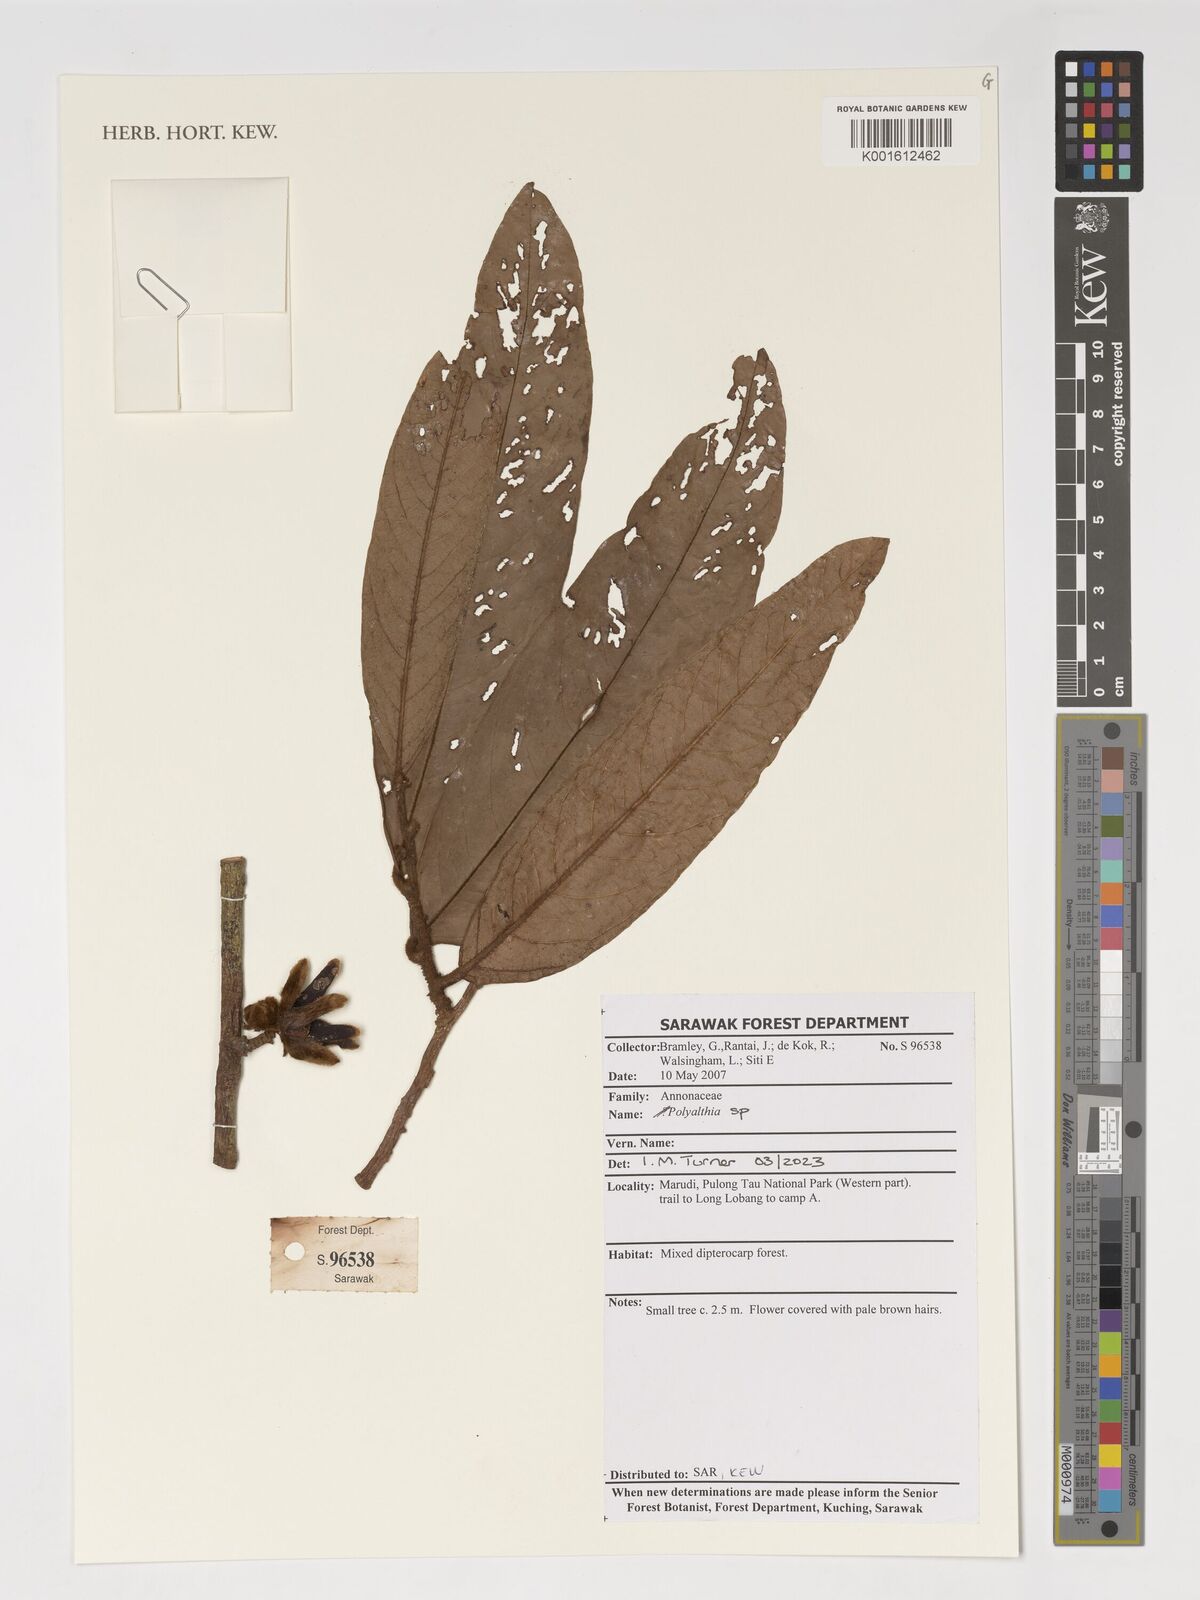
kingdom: Plantae
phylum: Tracheophyta
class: Magnoliopsida
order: Magnoliales
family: Annonaceae
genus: Polyalthia
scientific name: Polyalthia
